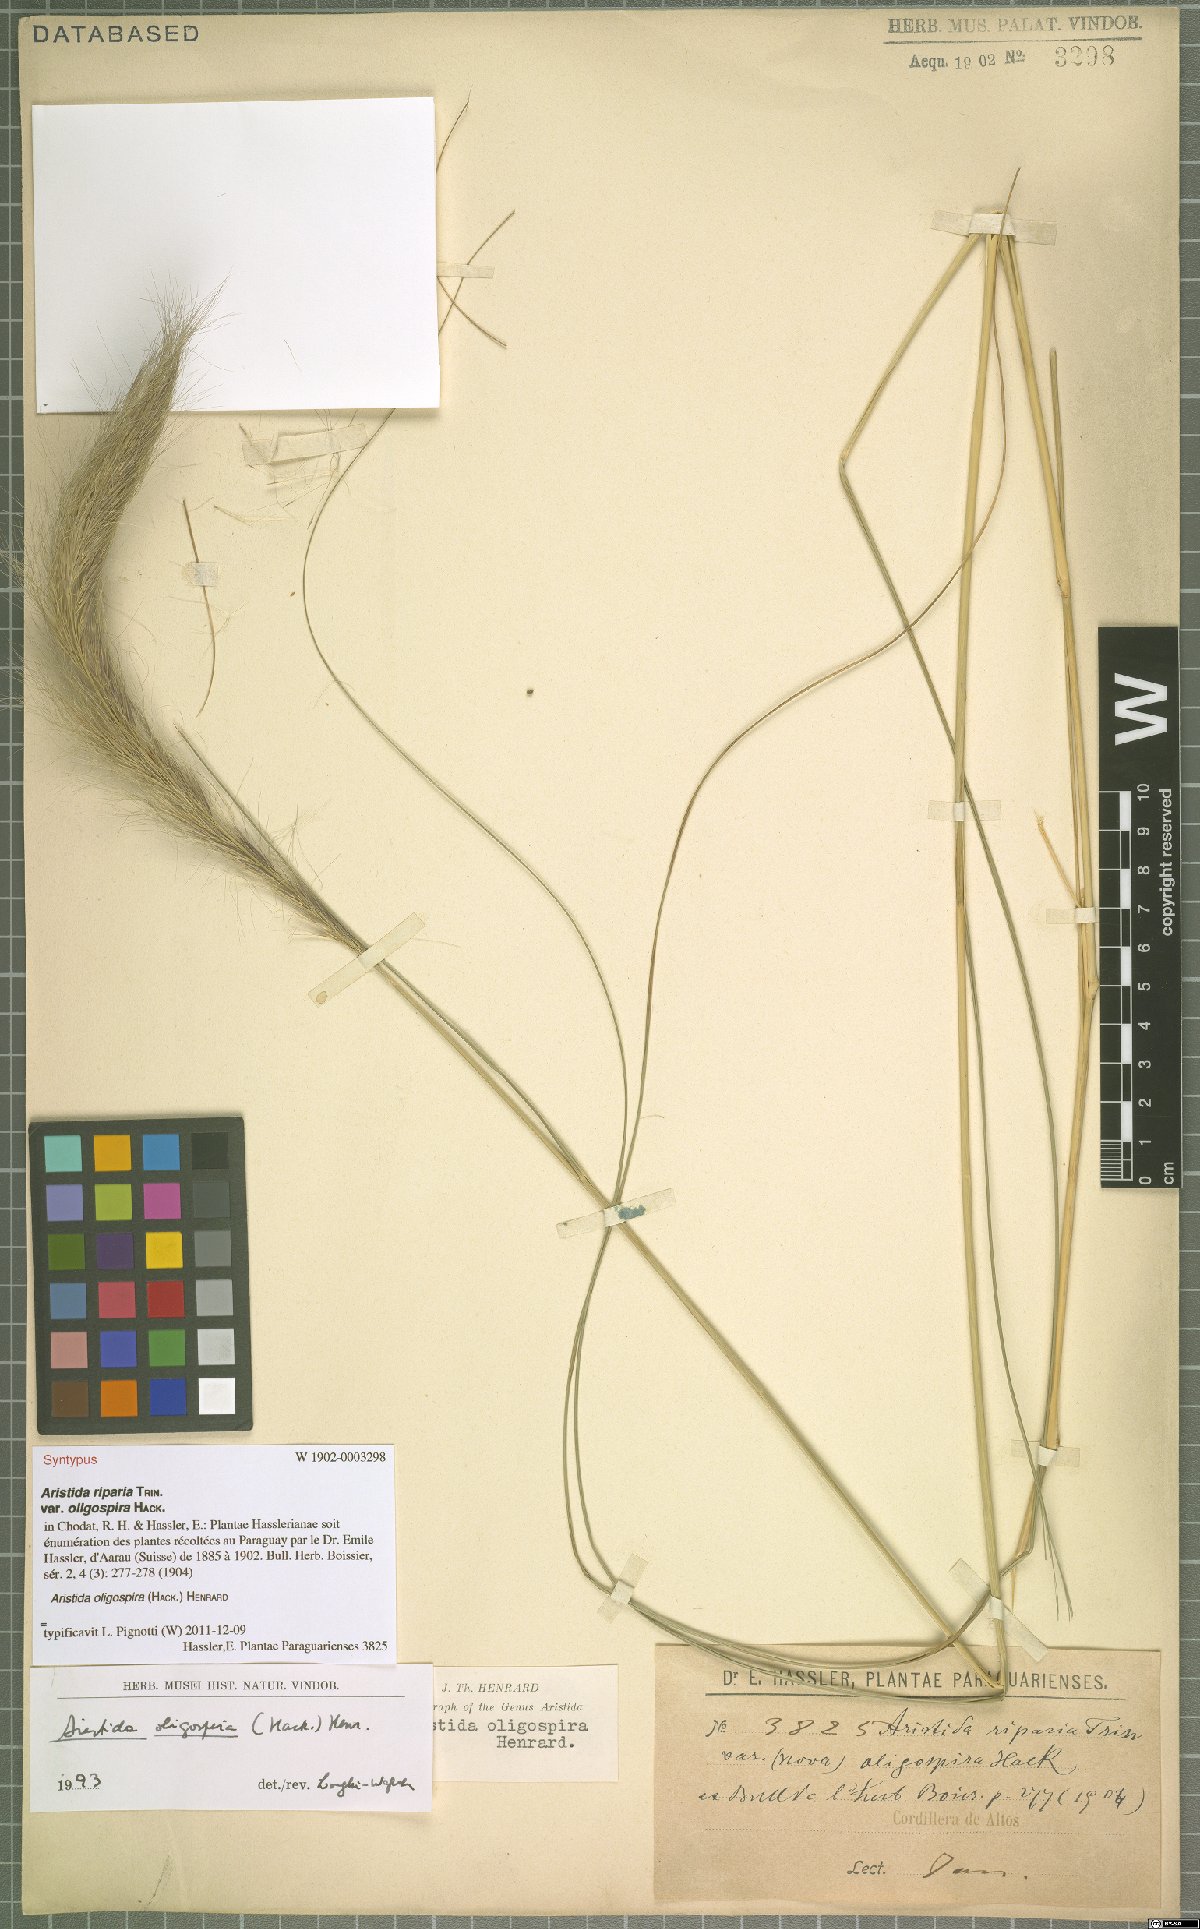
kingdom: Plantae
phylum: Tracheophyta
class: Liliopsida
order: Poales
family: Poaceae
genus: Aristida
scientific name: Aristida oligospira
